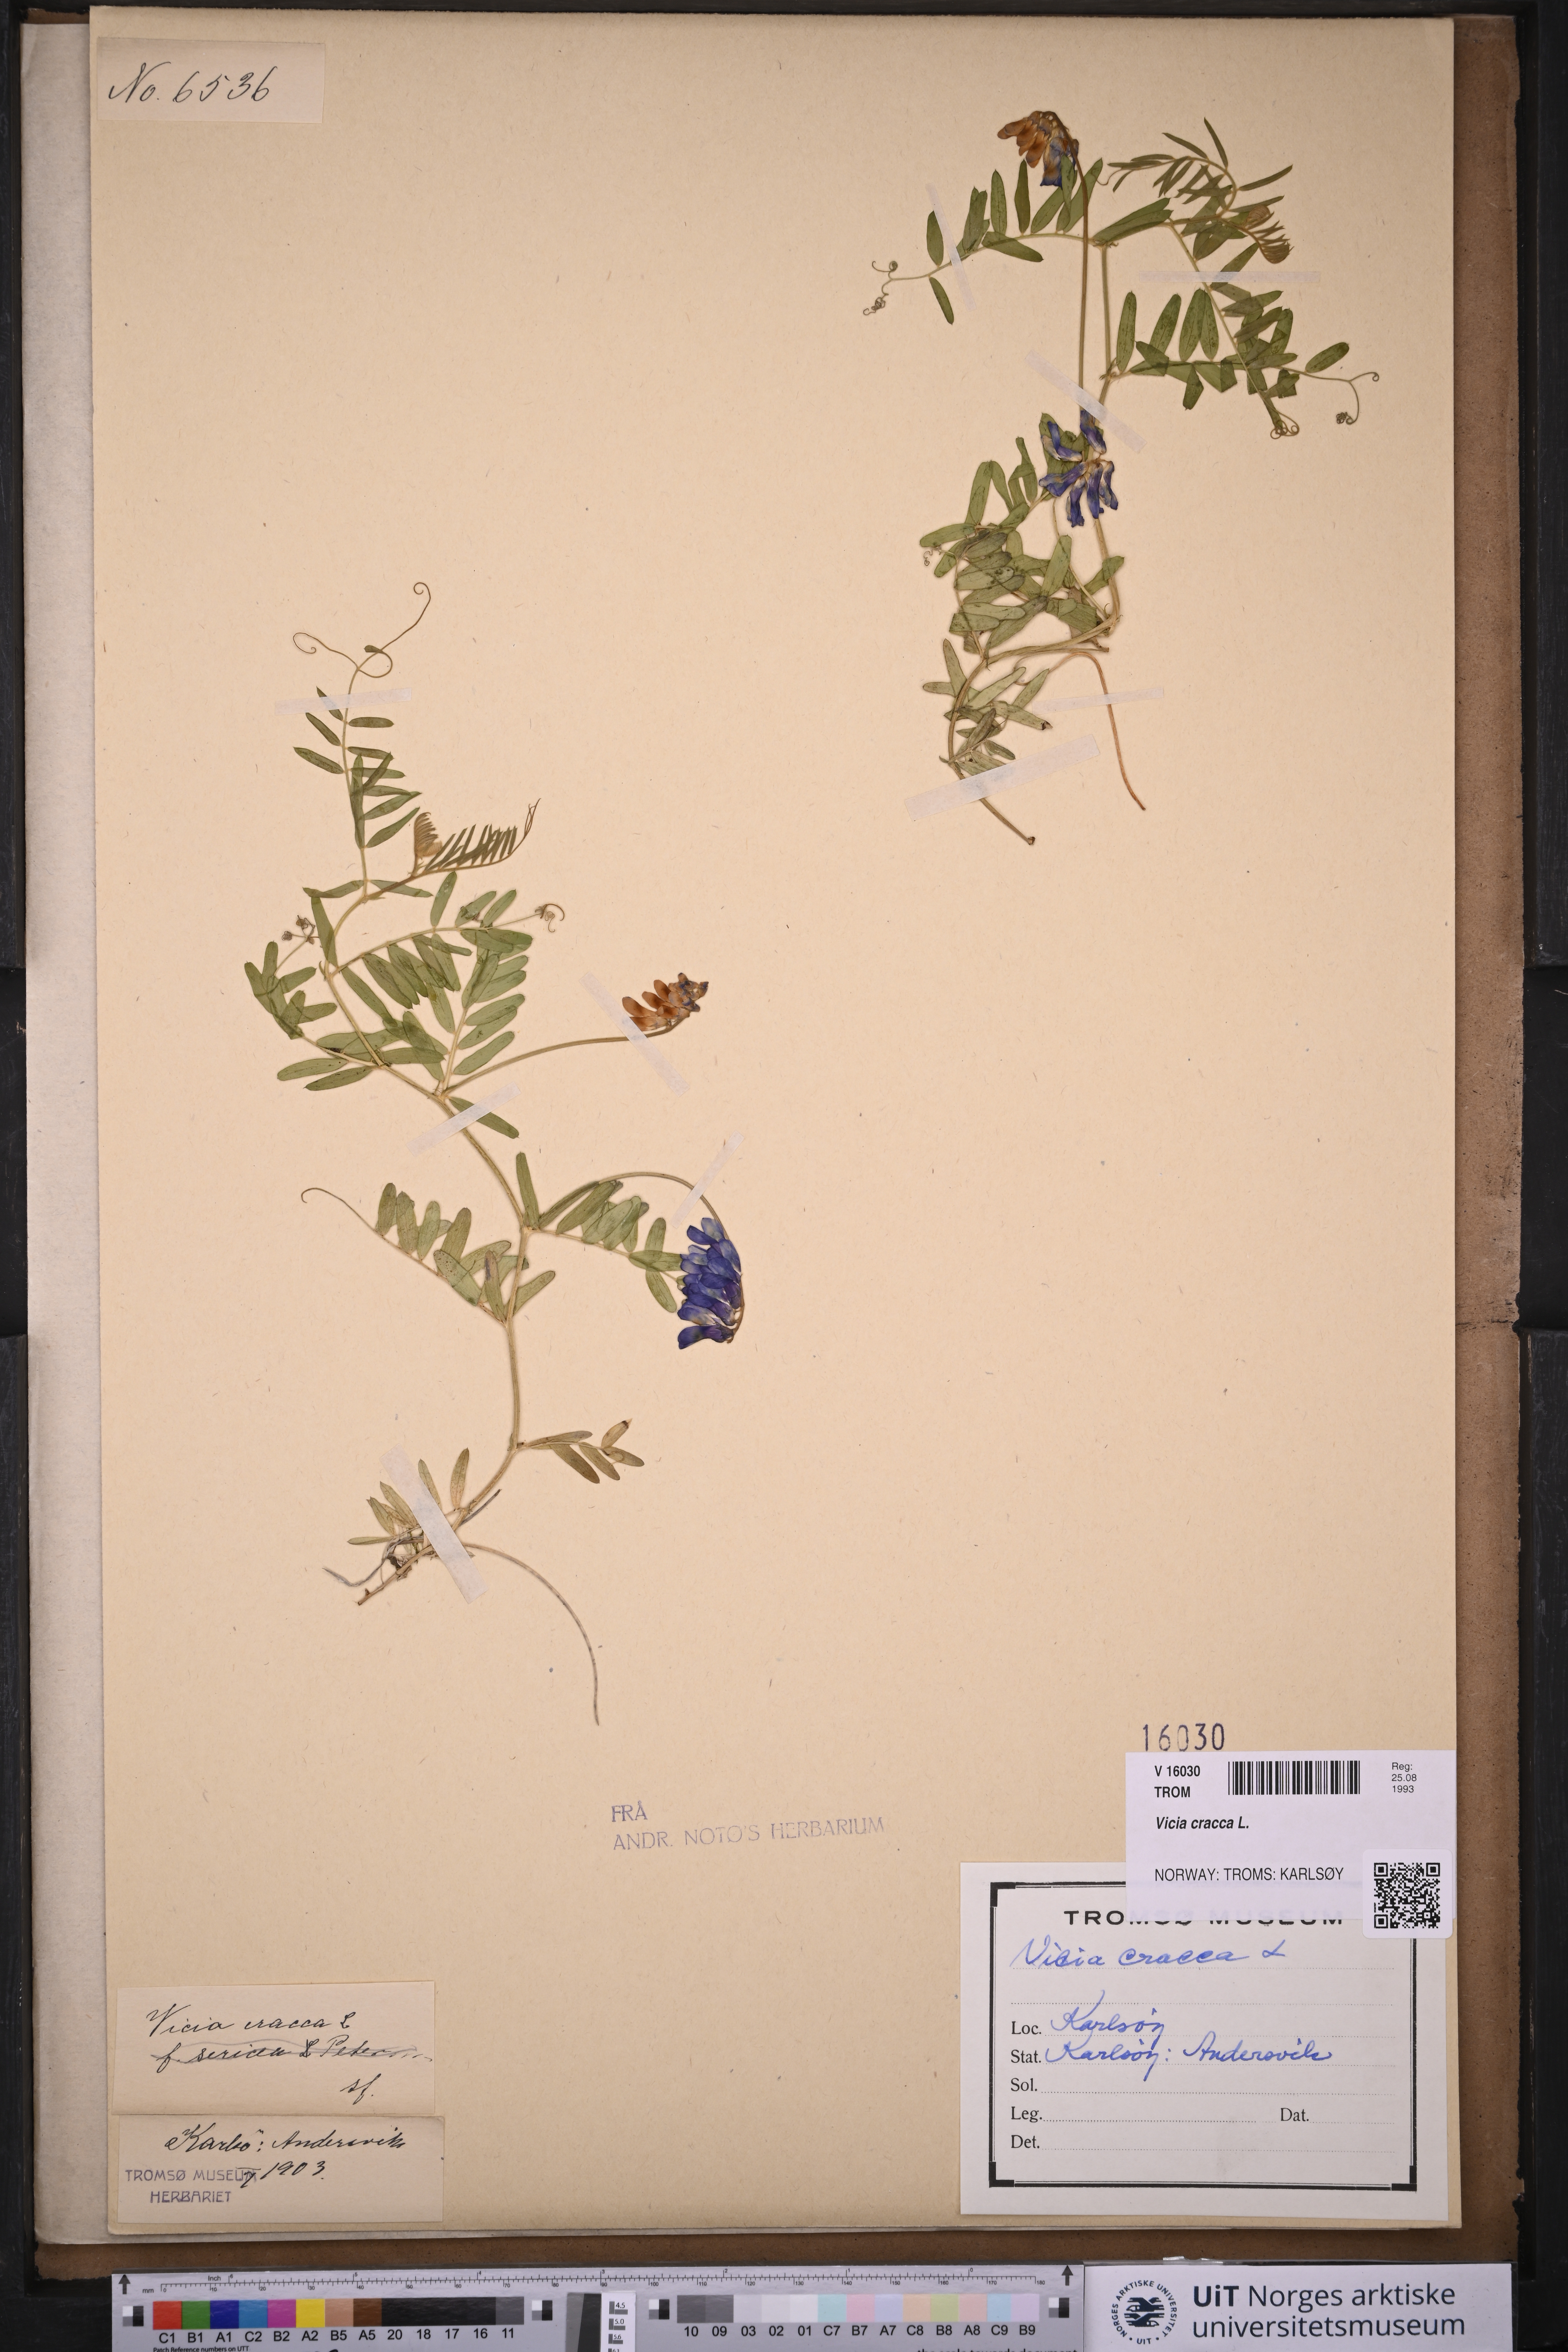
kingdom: Plantae
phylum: Tracheophyta
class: Magnoliopsida
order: Fabales
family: Fabaceae
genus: Vicia
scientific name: Vicia cracca
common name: Bird vetch
